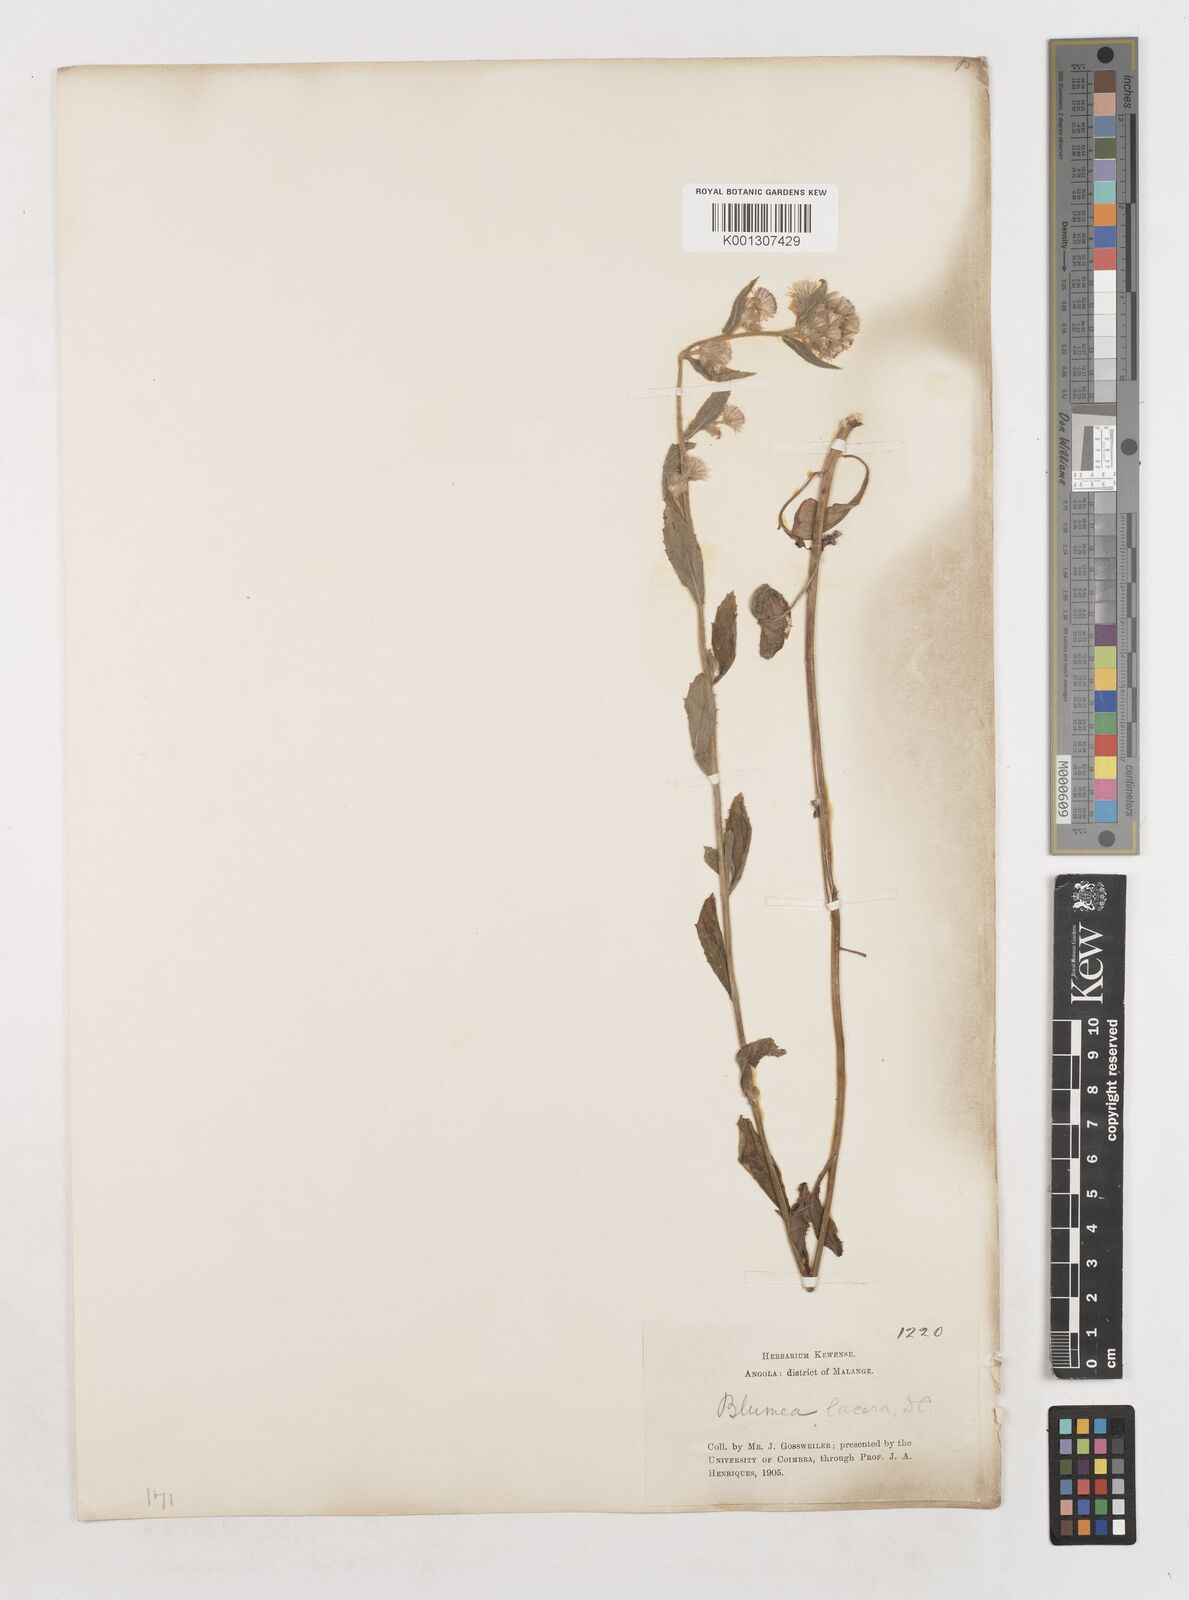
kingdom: Plantae
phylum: Tracheophyta
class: Magnoliopsida
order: Asterales
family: Asteraceae
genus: Blumea
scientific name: Blumea axillaris
